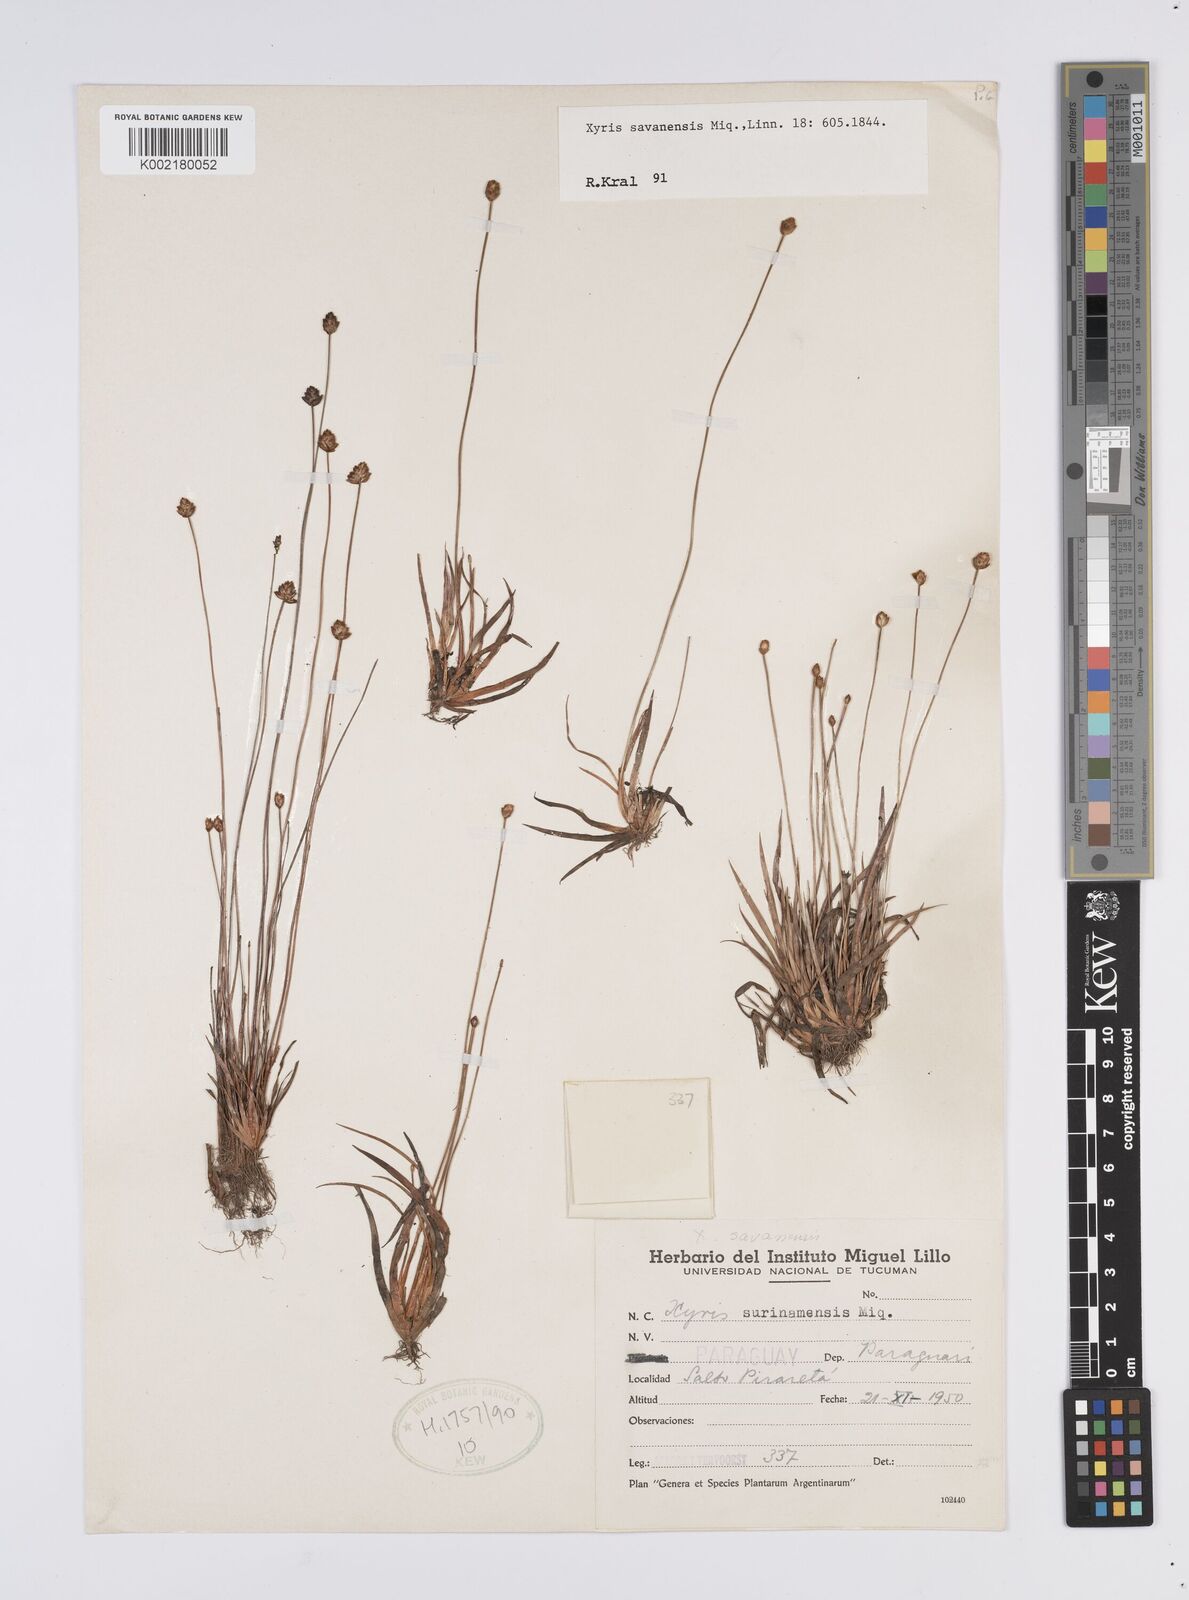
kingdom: Plantae
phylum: Tracheophyta
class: Liliopsida
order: Poales
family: Xyridaceae
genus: Xyris
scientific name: Xyris surinamensis
